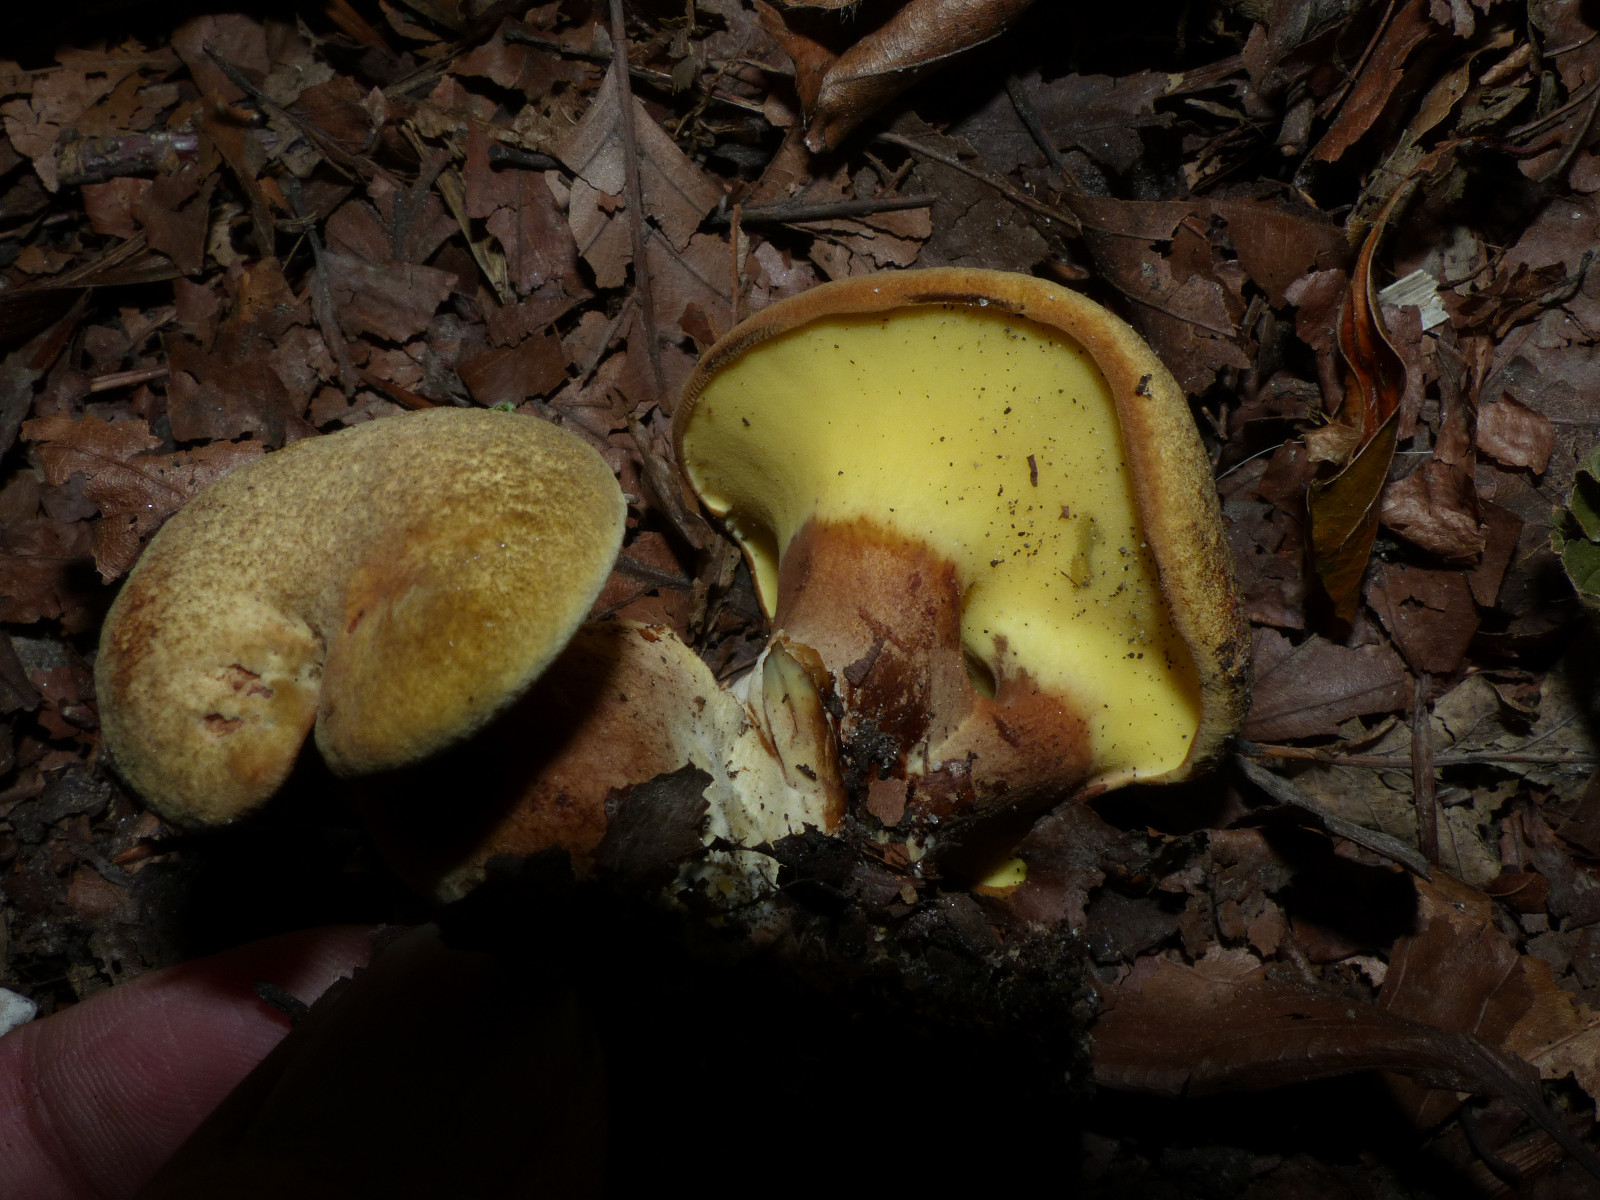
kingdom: Fungi
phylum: Basidiomycota
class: Agaricomycetes
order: Boletales
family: Paxillaceae
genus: Gyrodon
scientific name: Gyrodon lividus
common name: ellerørhat
